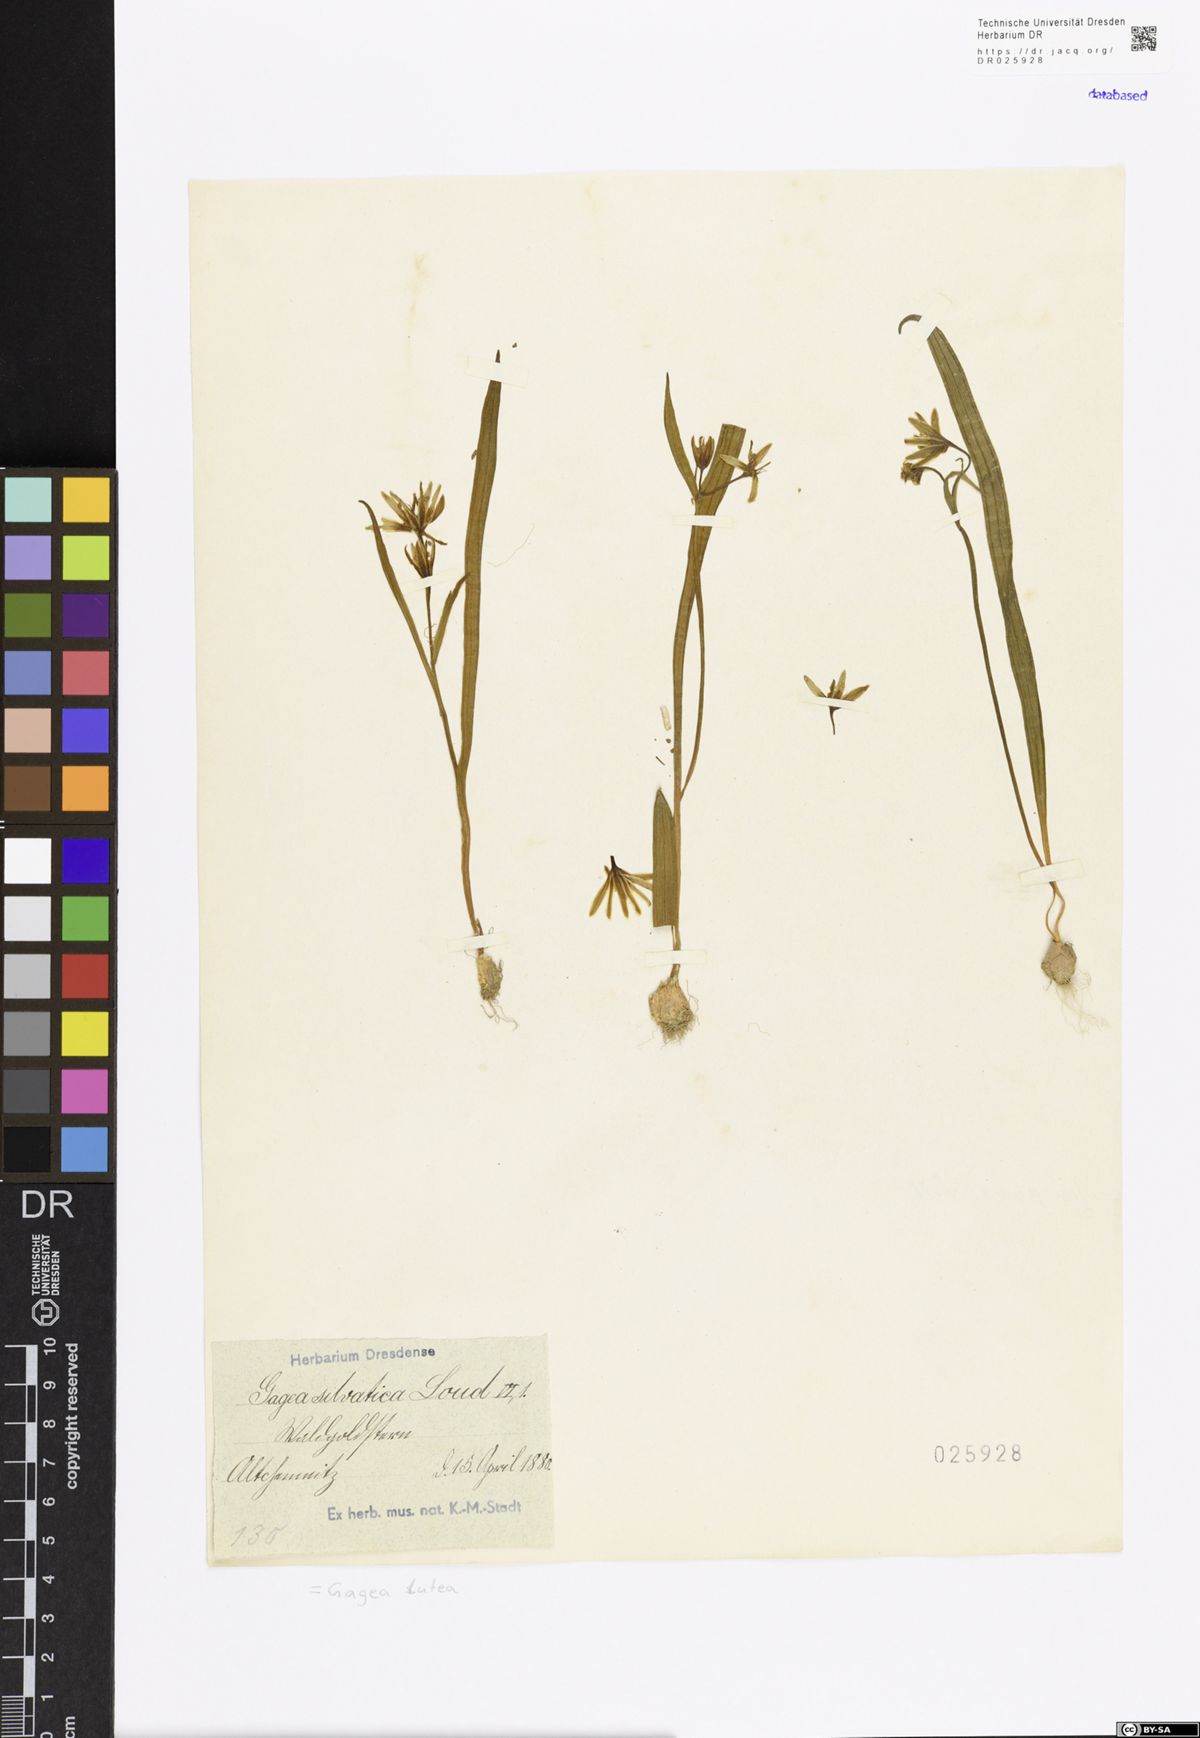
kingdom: Plantae
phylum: Tracheophyta
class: Liliopsida
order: Liliales
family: Liliaceae
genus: Gagea
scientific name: Gagea lutea
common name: Yellow star-of-bethlehem
